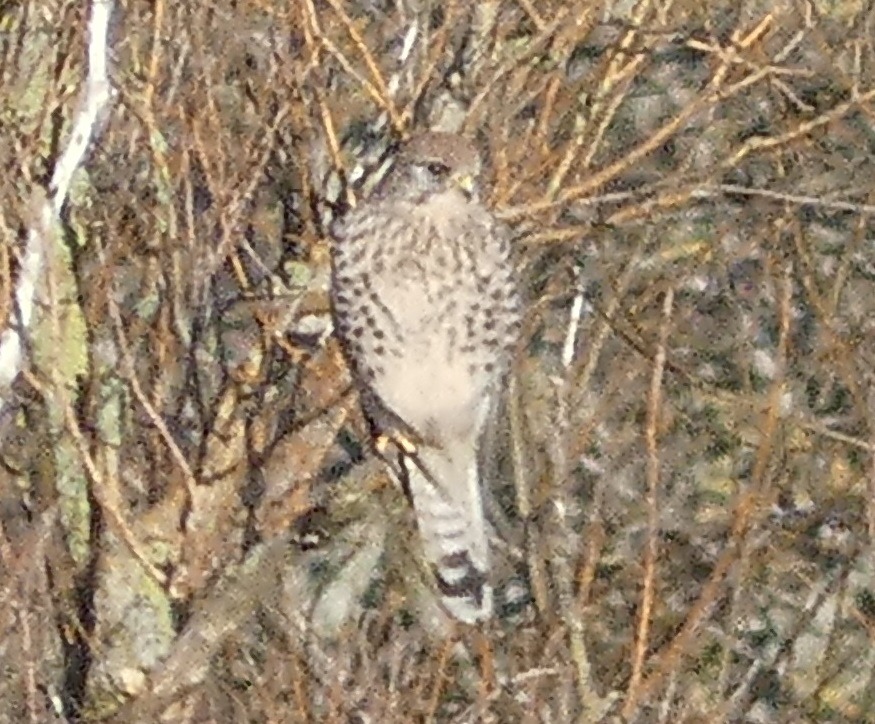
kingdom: Animalia
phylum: Chordata
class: Aves
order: Falconiformes
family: Falconidae
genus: Falco
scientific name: Falco tinnunculus
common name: Tårnfalk
